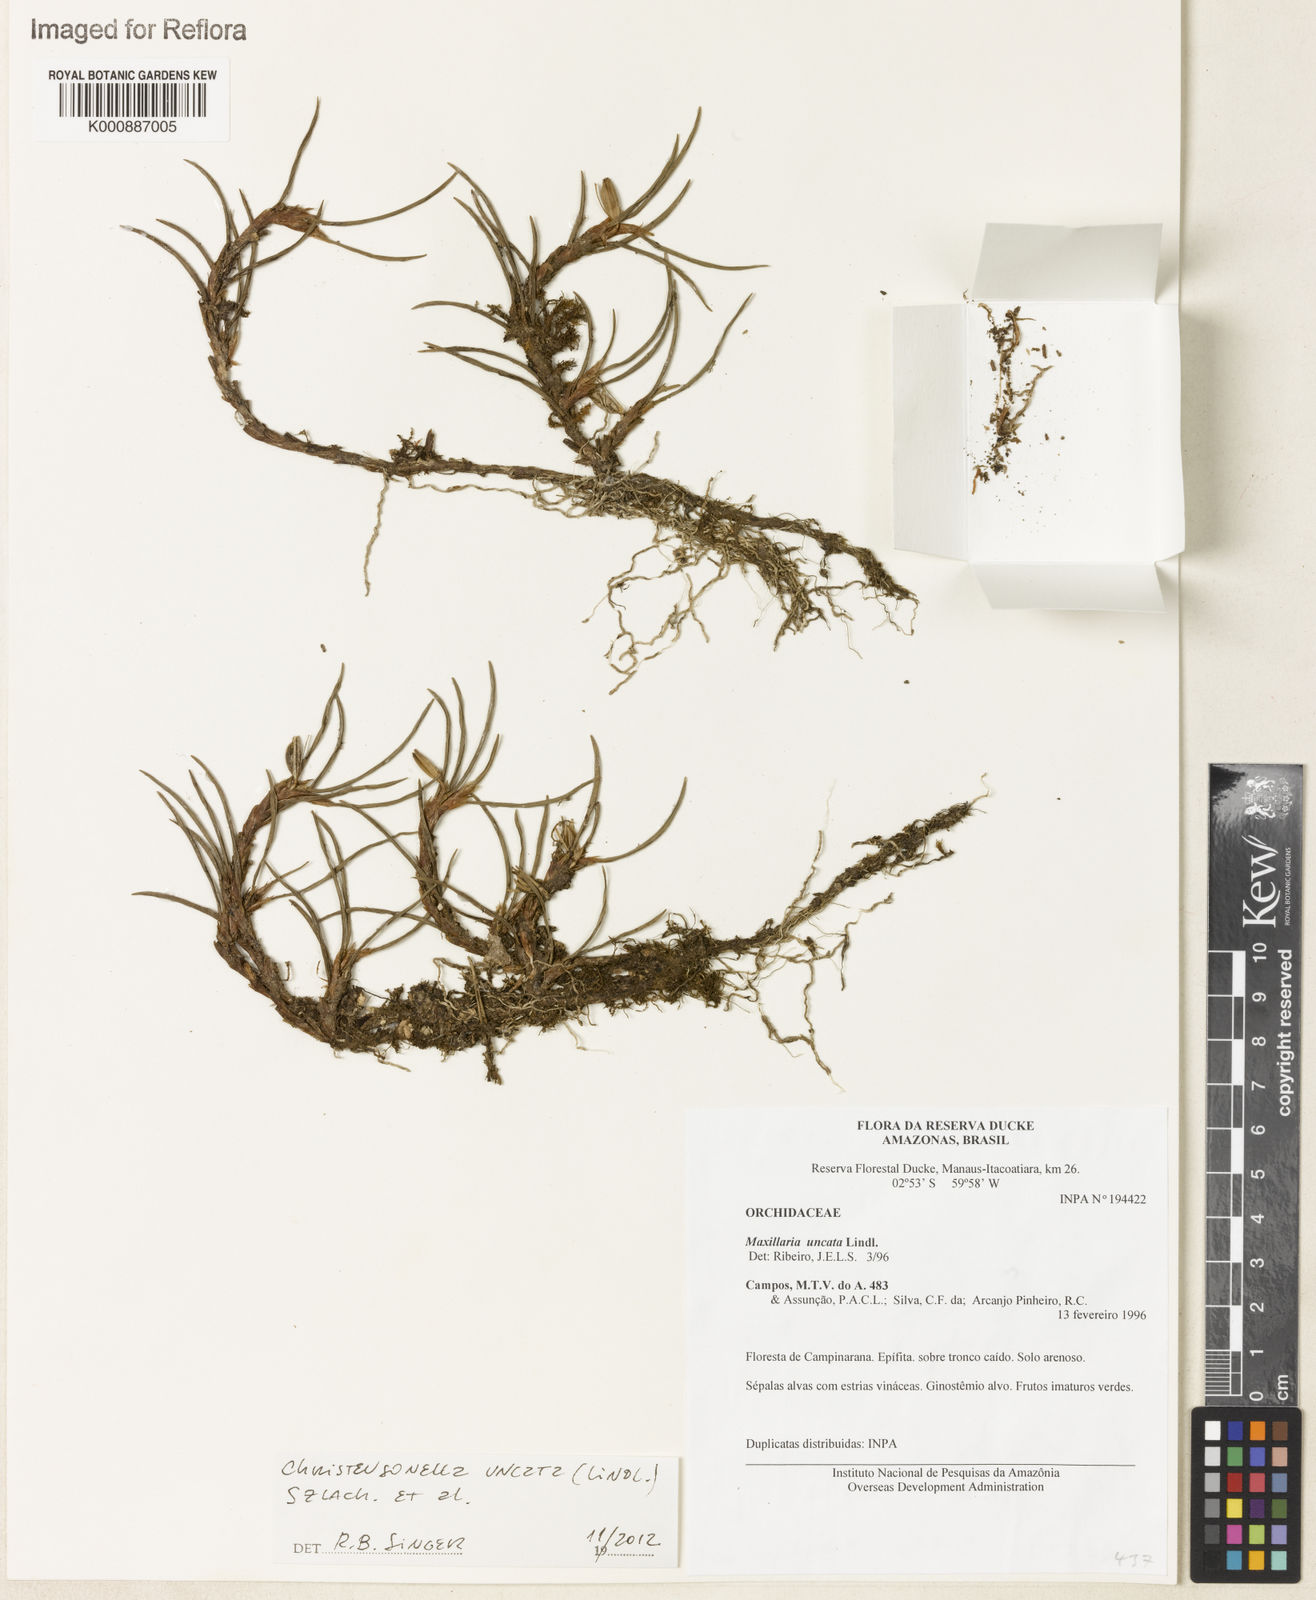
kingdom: Plantae
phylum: Tracheophyta
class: Liliopsida
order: Asparagales
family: Orchidaceae
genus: Maxillaria
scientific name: Maxillaria uncata
